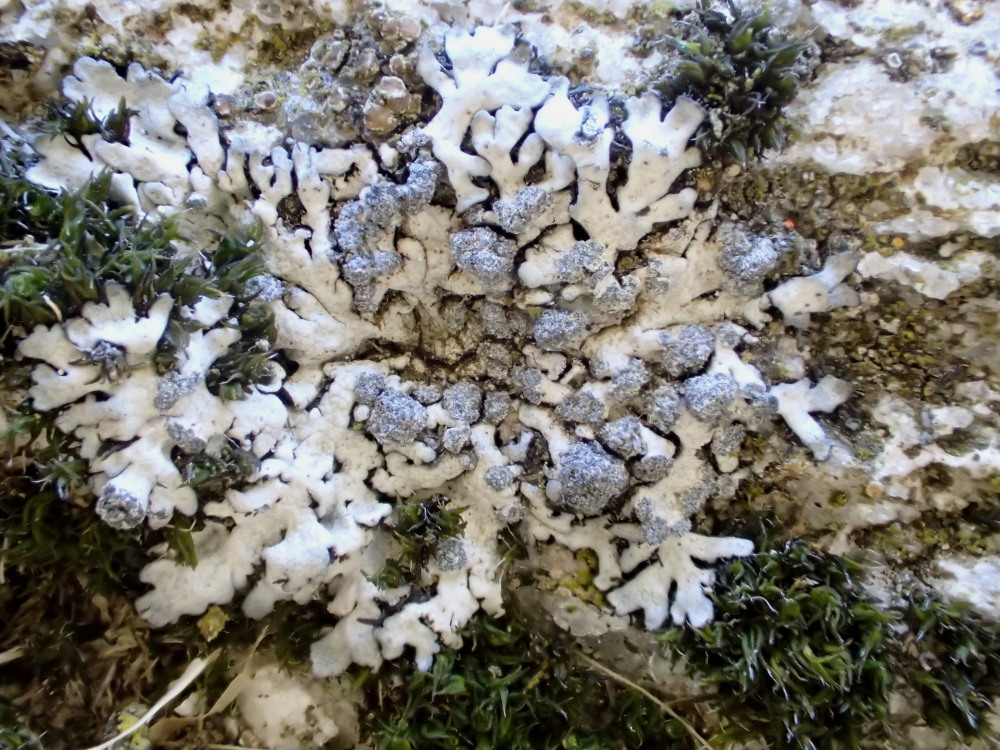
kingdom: Fungi
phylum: Ascomycota
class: Lecanoromycetes
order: Caliciales
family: Physciaceae
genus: Physcia
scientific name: Physcia caesia
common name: blågrå rosetlav
